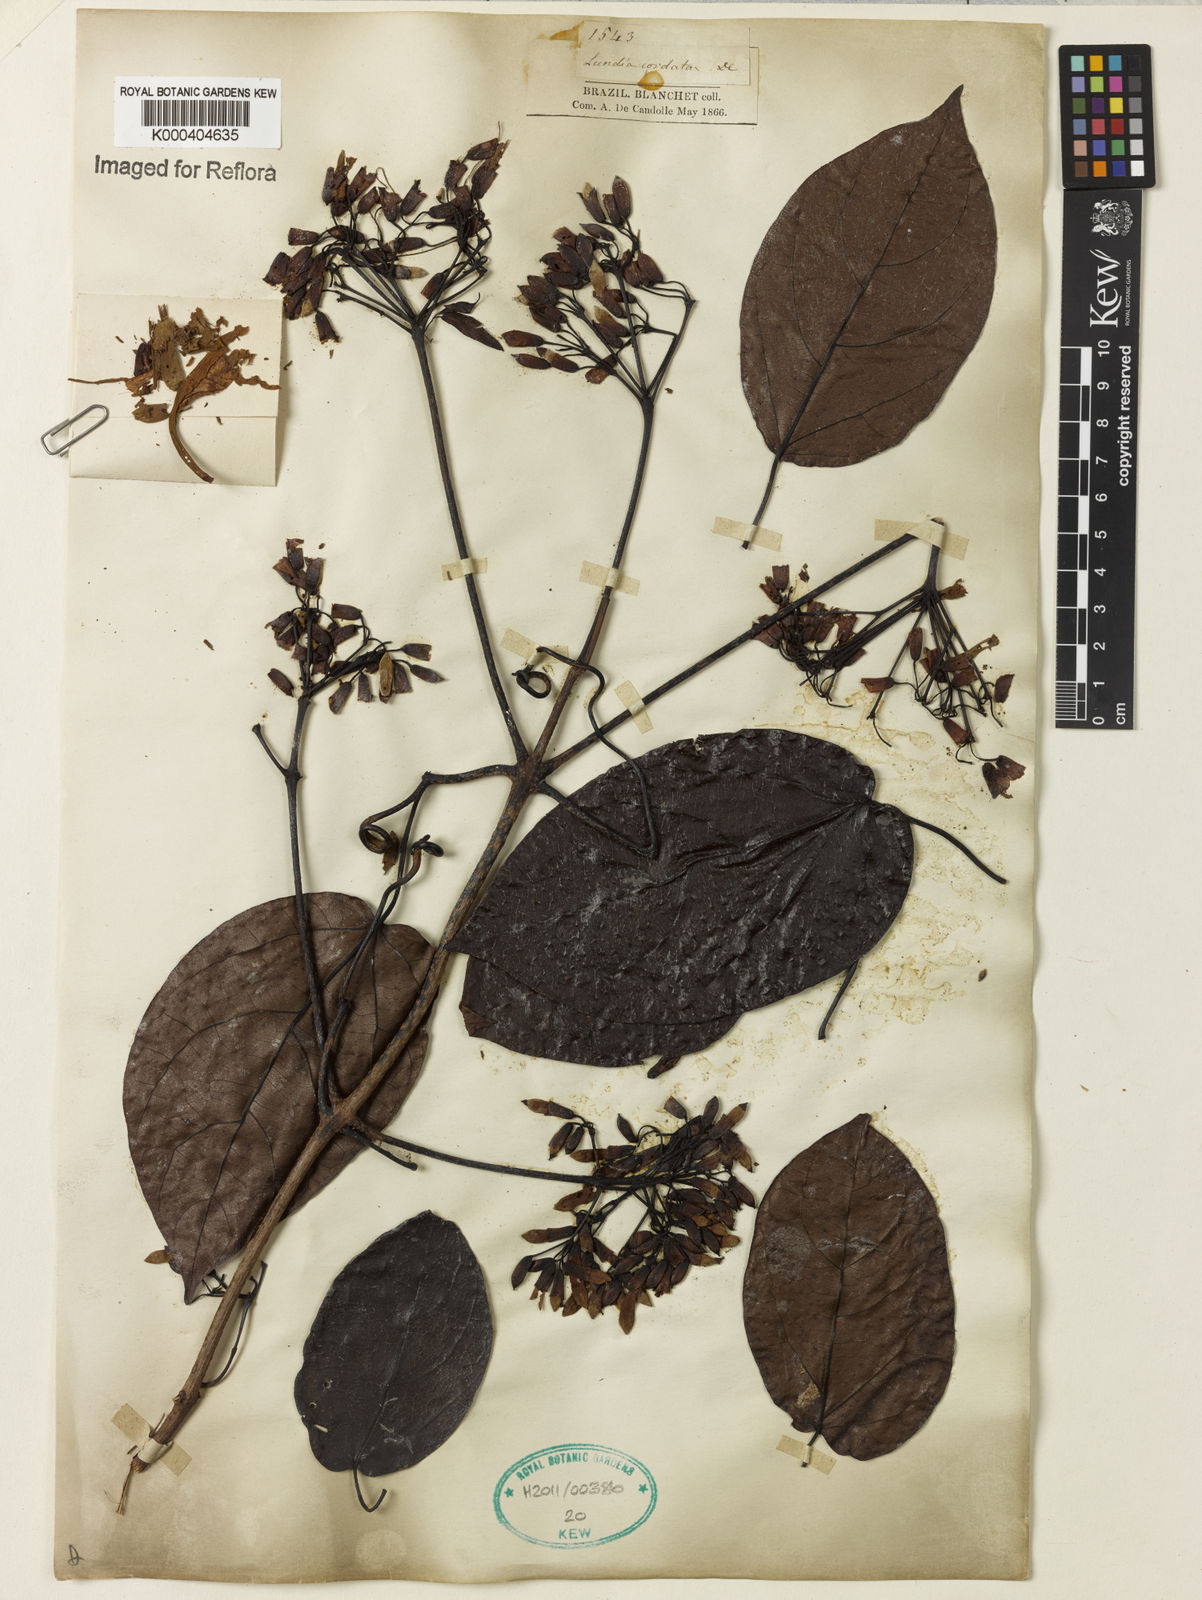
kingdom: Plantae
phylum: Tracheophyta
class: Magnoliopsida
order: Lamiales
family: Bignoniaceae
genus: Lundia
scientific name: Lundia corymbifera
